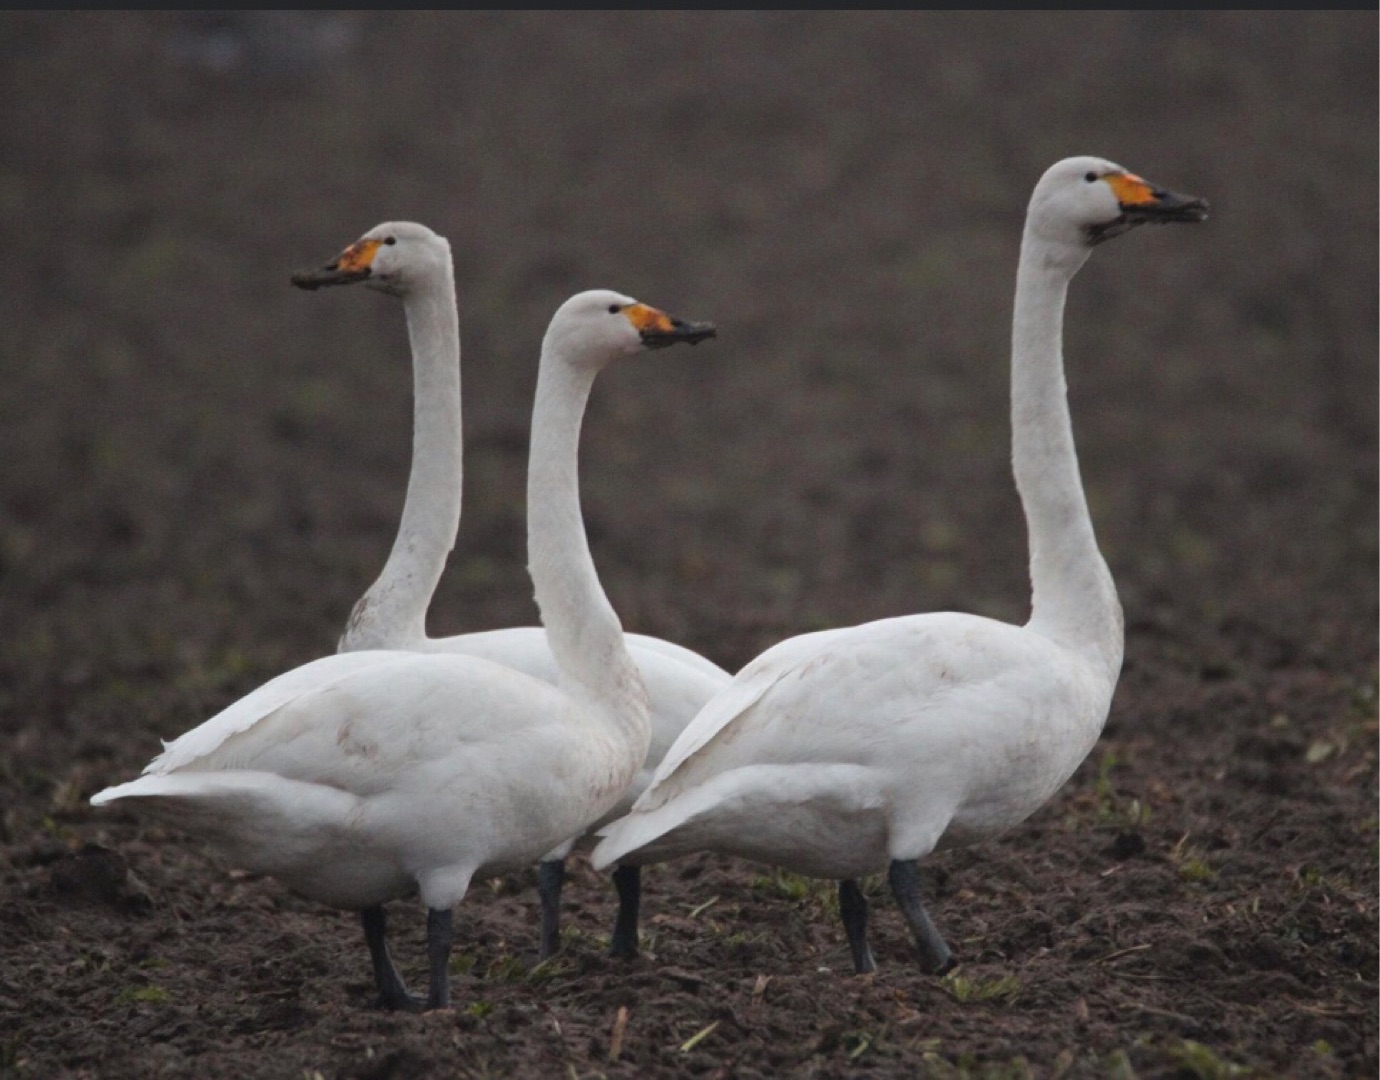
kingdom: Animalia
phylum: Chordata
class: Aves
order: Anseriformes
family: Anatidae
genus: Cygnus
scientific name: Cygnus cygnus
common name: Sangsvane
